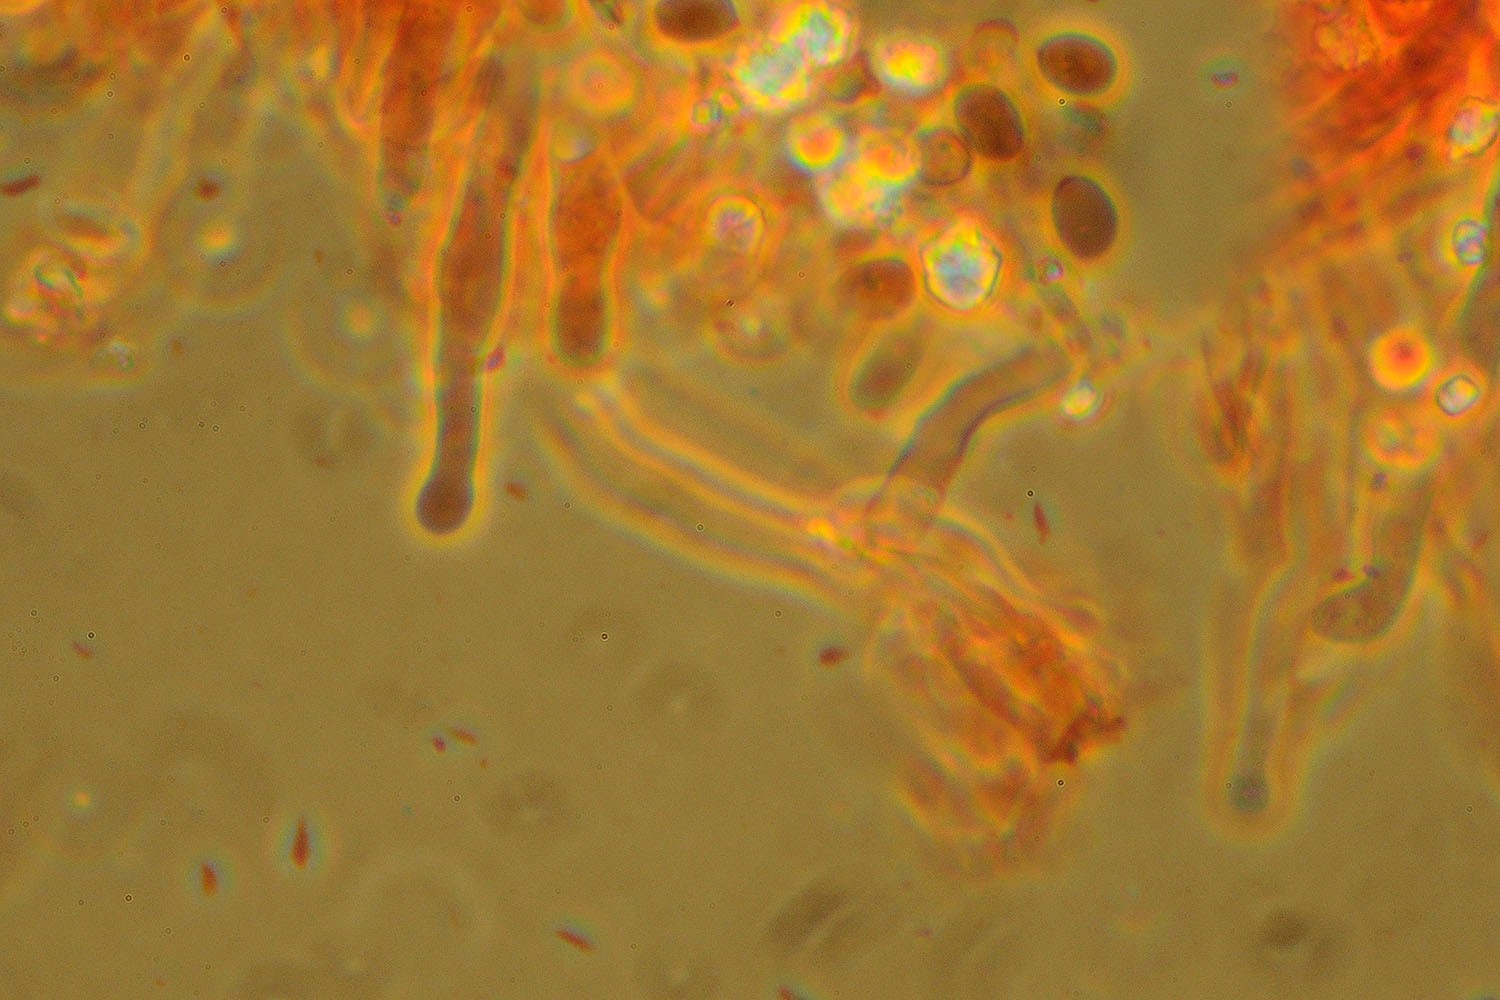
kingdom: Fungi
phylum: Basidiomycota
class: Agaricomycetes
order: Hymenochaetales
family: Schizoporaceae
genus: Xylodon
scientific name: Xylodon asper
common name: fjern tandsvamp
